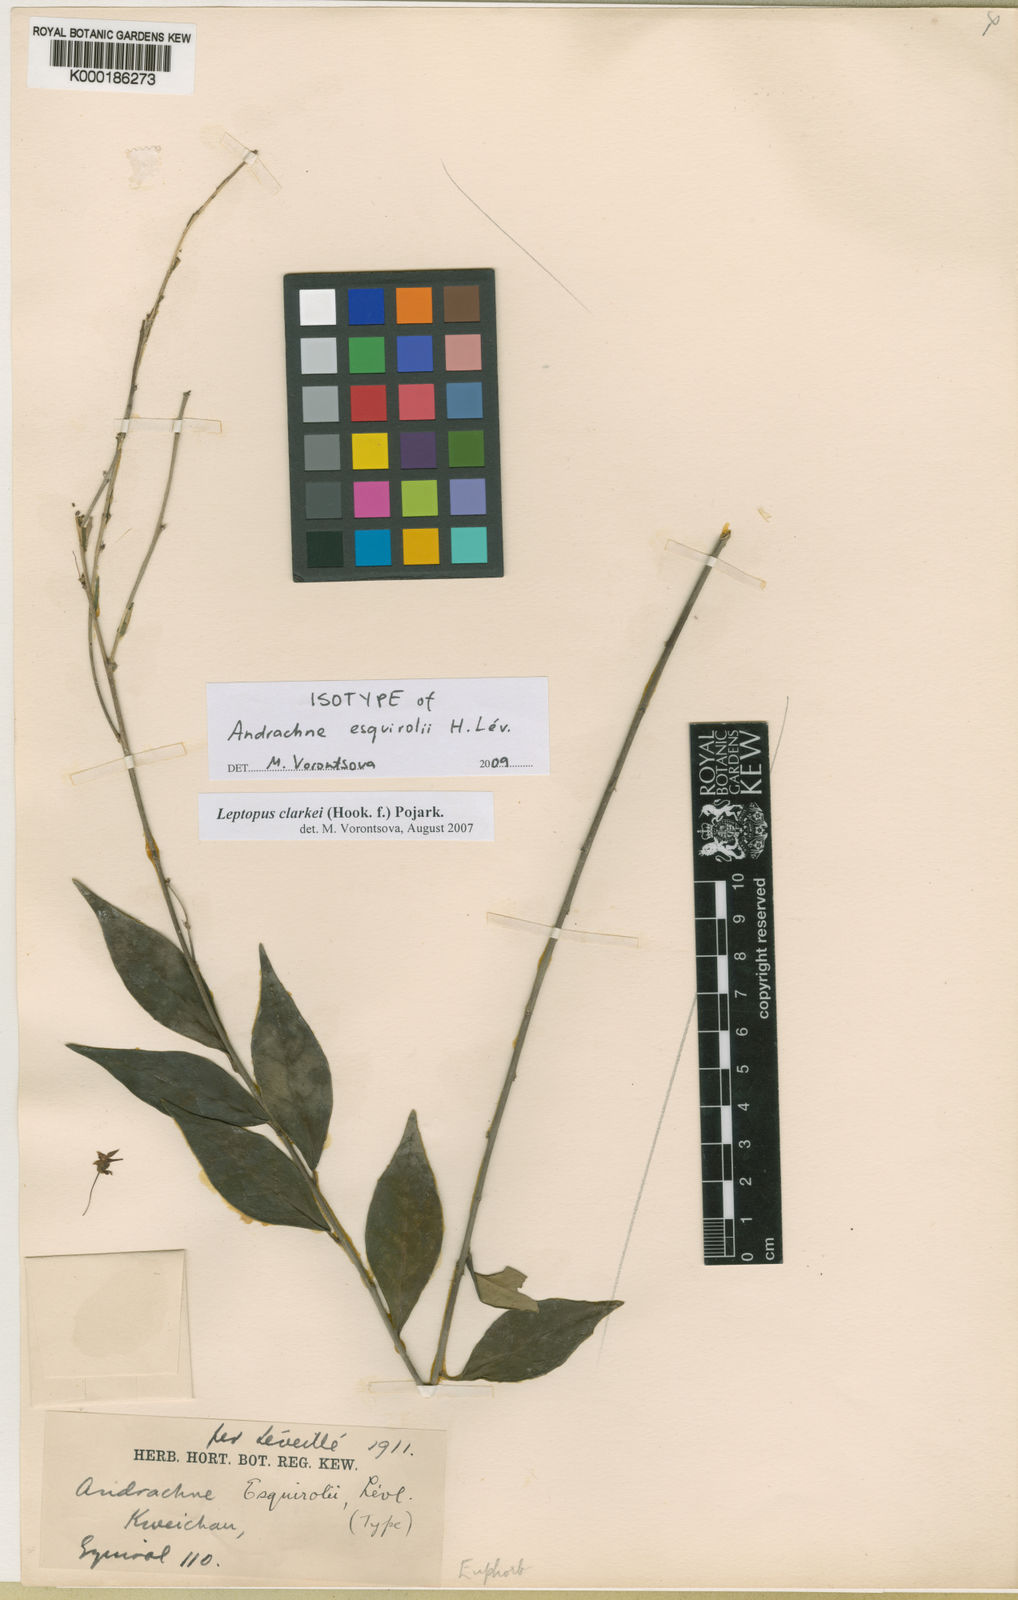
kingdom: Plantae
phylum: Tracheophyta
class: Magnoliopsida
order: Malpighiales
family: Phyllanthaceae
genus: Leptopus
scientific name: Leptopus clarkei
